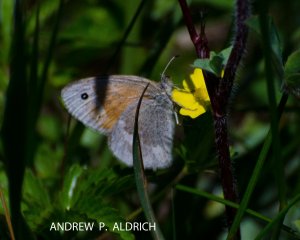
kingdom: Animalia
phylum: Arthropoda
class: Insecta
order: Lepidoptera
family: Nymphalidae
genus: Coenonympha
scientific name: Coenonympha tullia
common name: Large Heath
